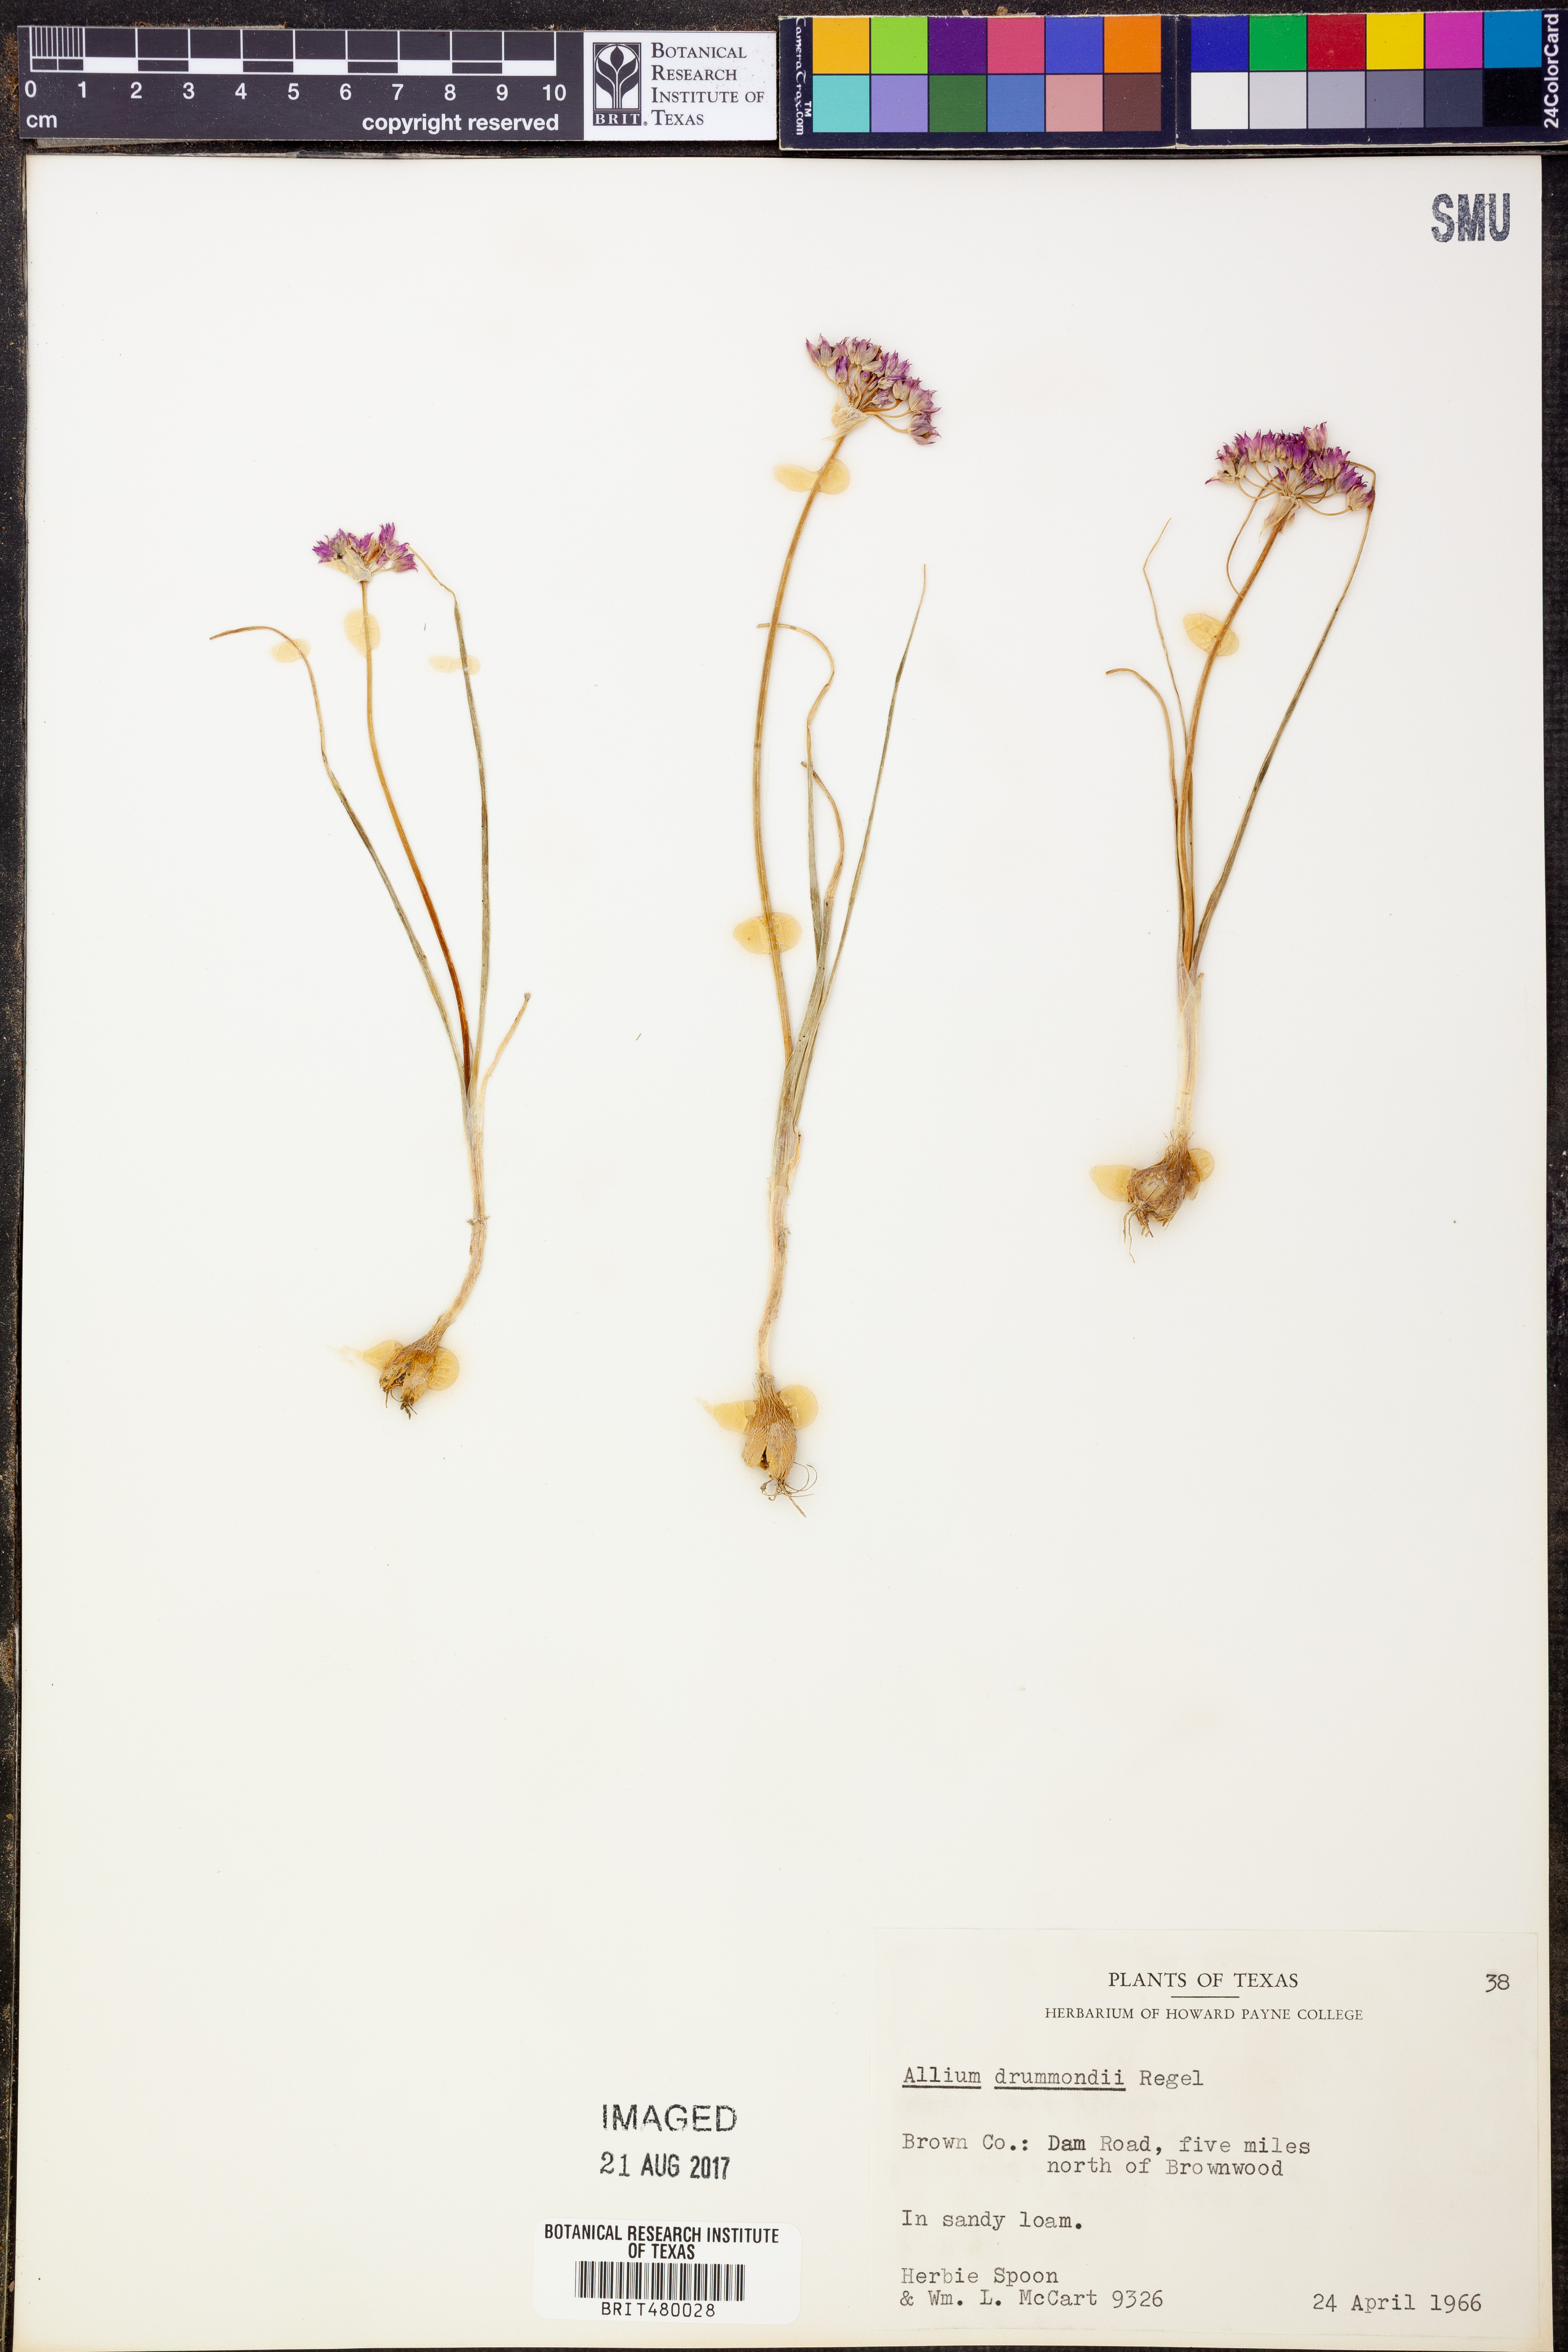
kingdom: Plantae
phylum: Tracheophyta
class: Liliopsida
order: Asparagales
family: Amaryllidaceae
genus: Allium
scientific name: Allium drummondii
